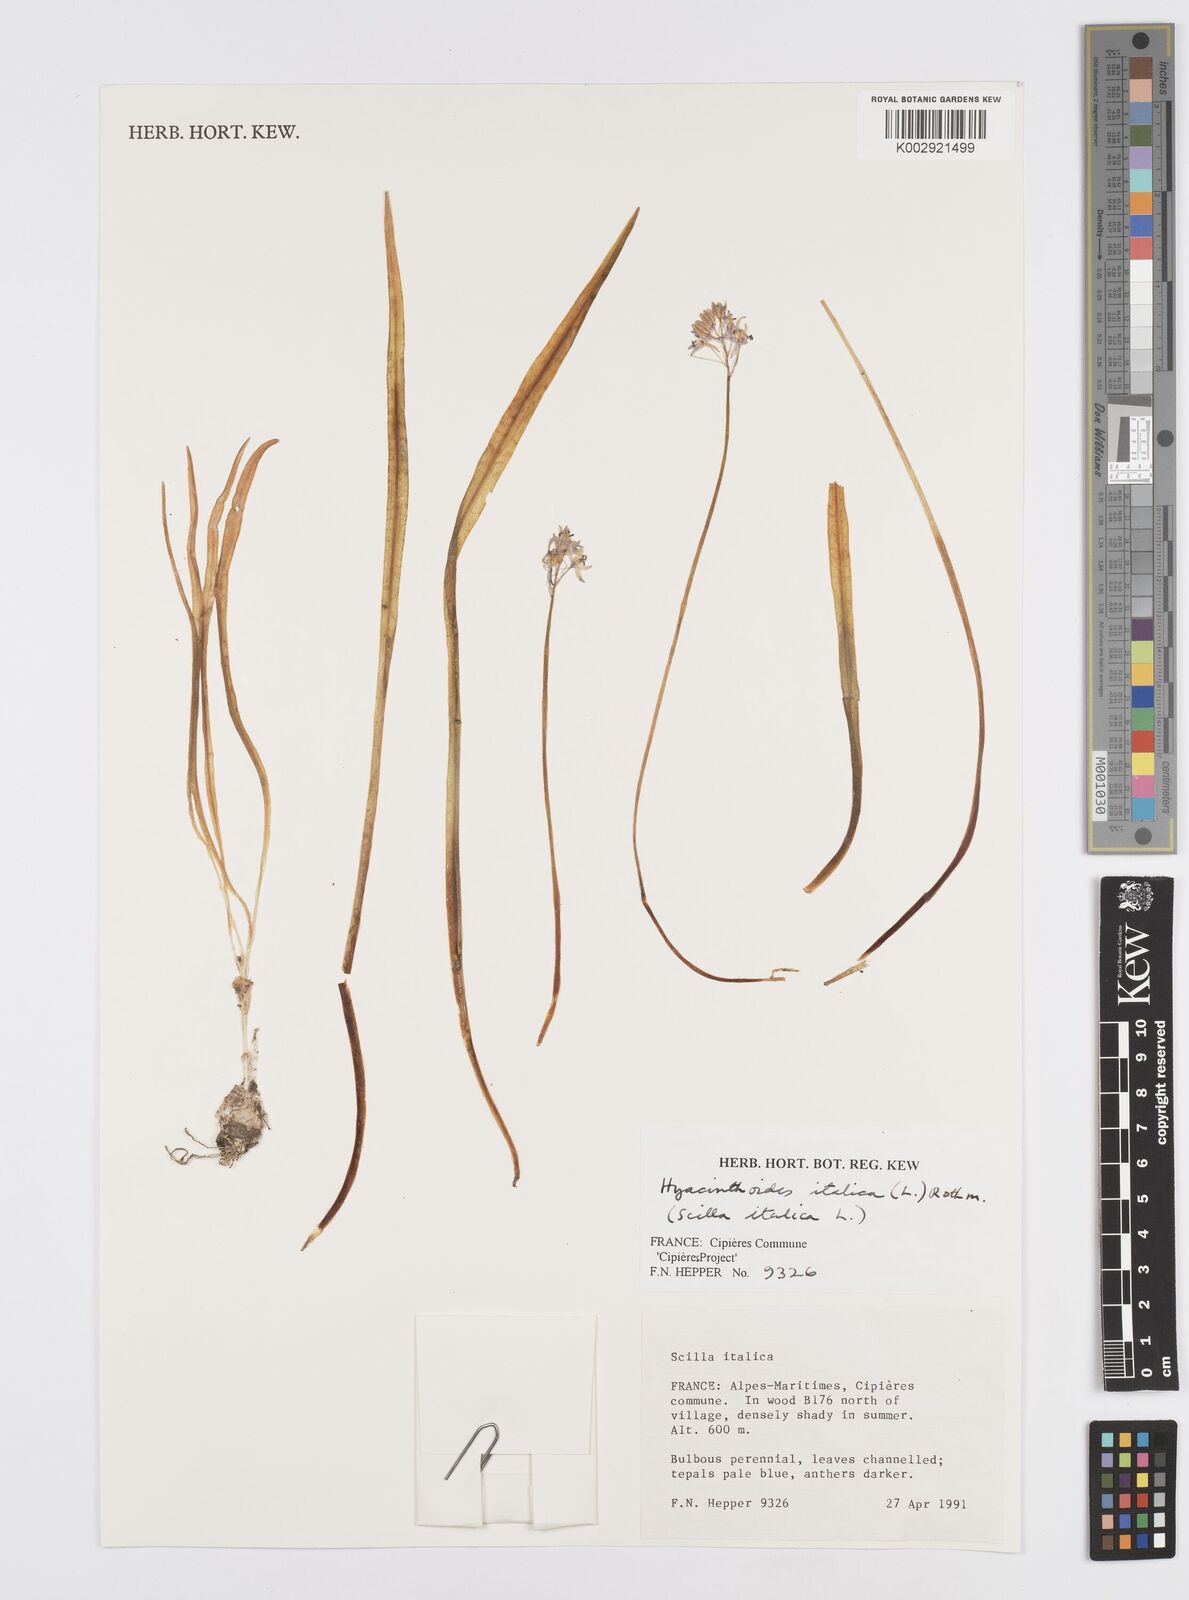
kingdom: Plantae
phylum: Tracheophyta
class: Liliopsida
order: Asparagales
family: Asparagaceae
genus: Hyacinthoides
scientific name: Hyacinthoides italica
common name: Italian bluebell
